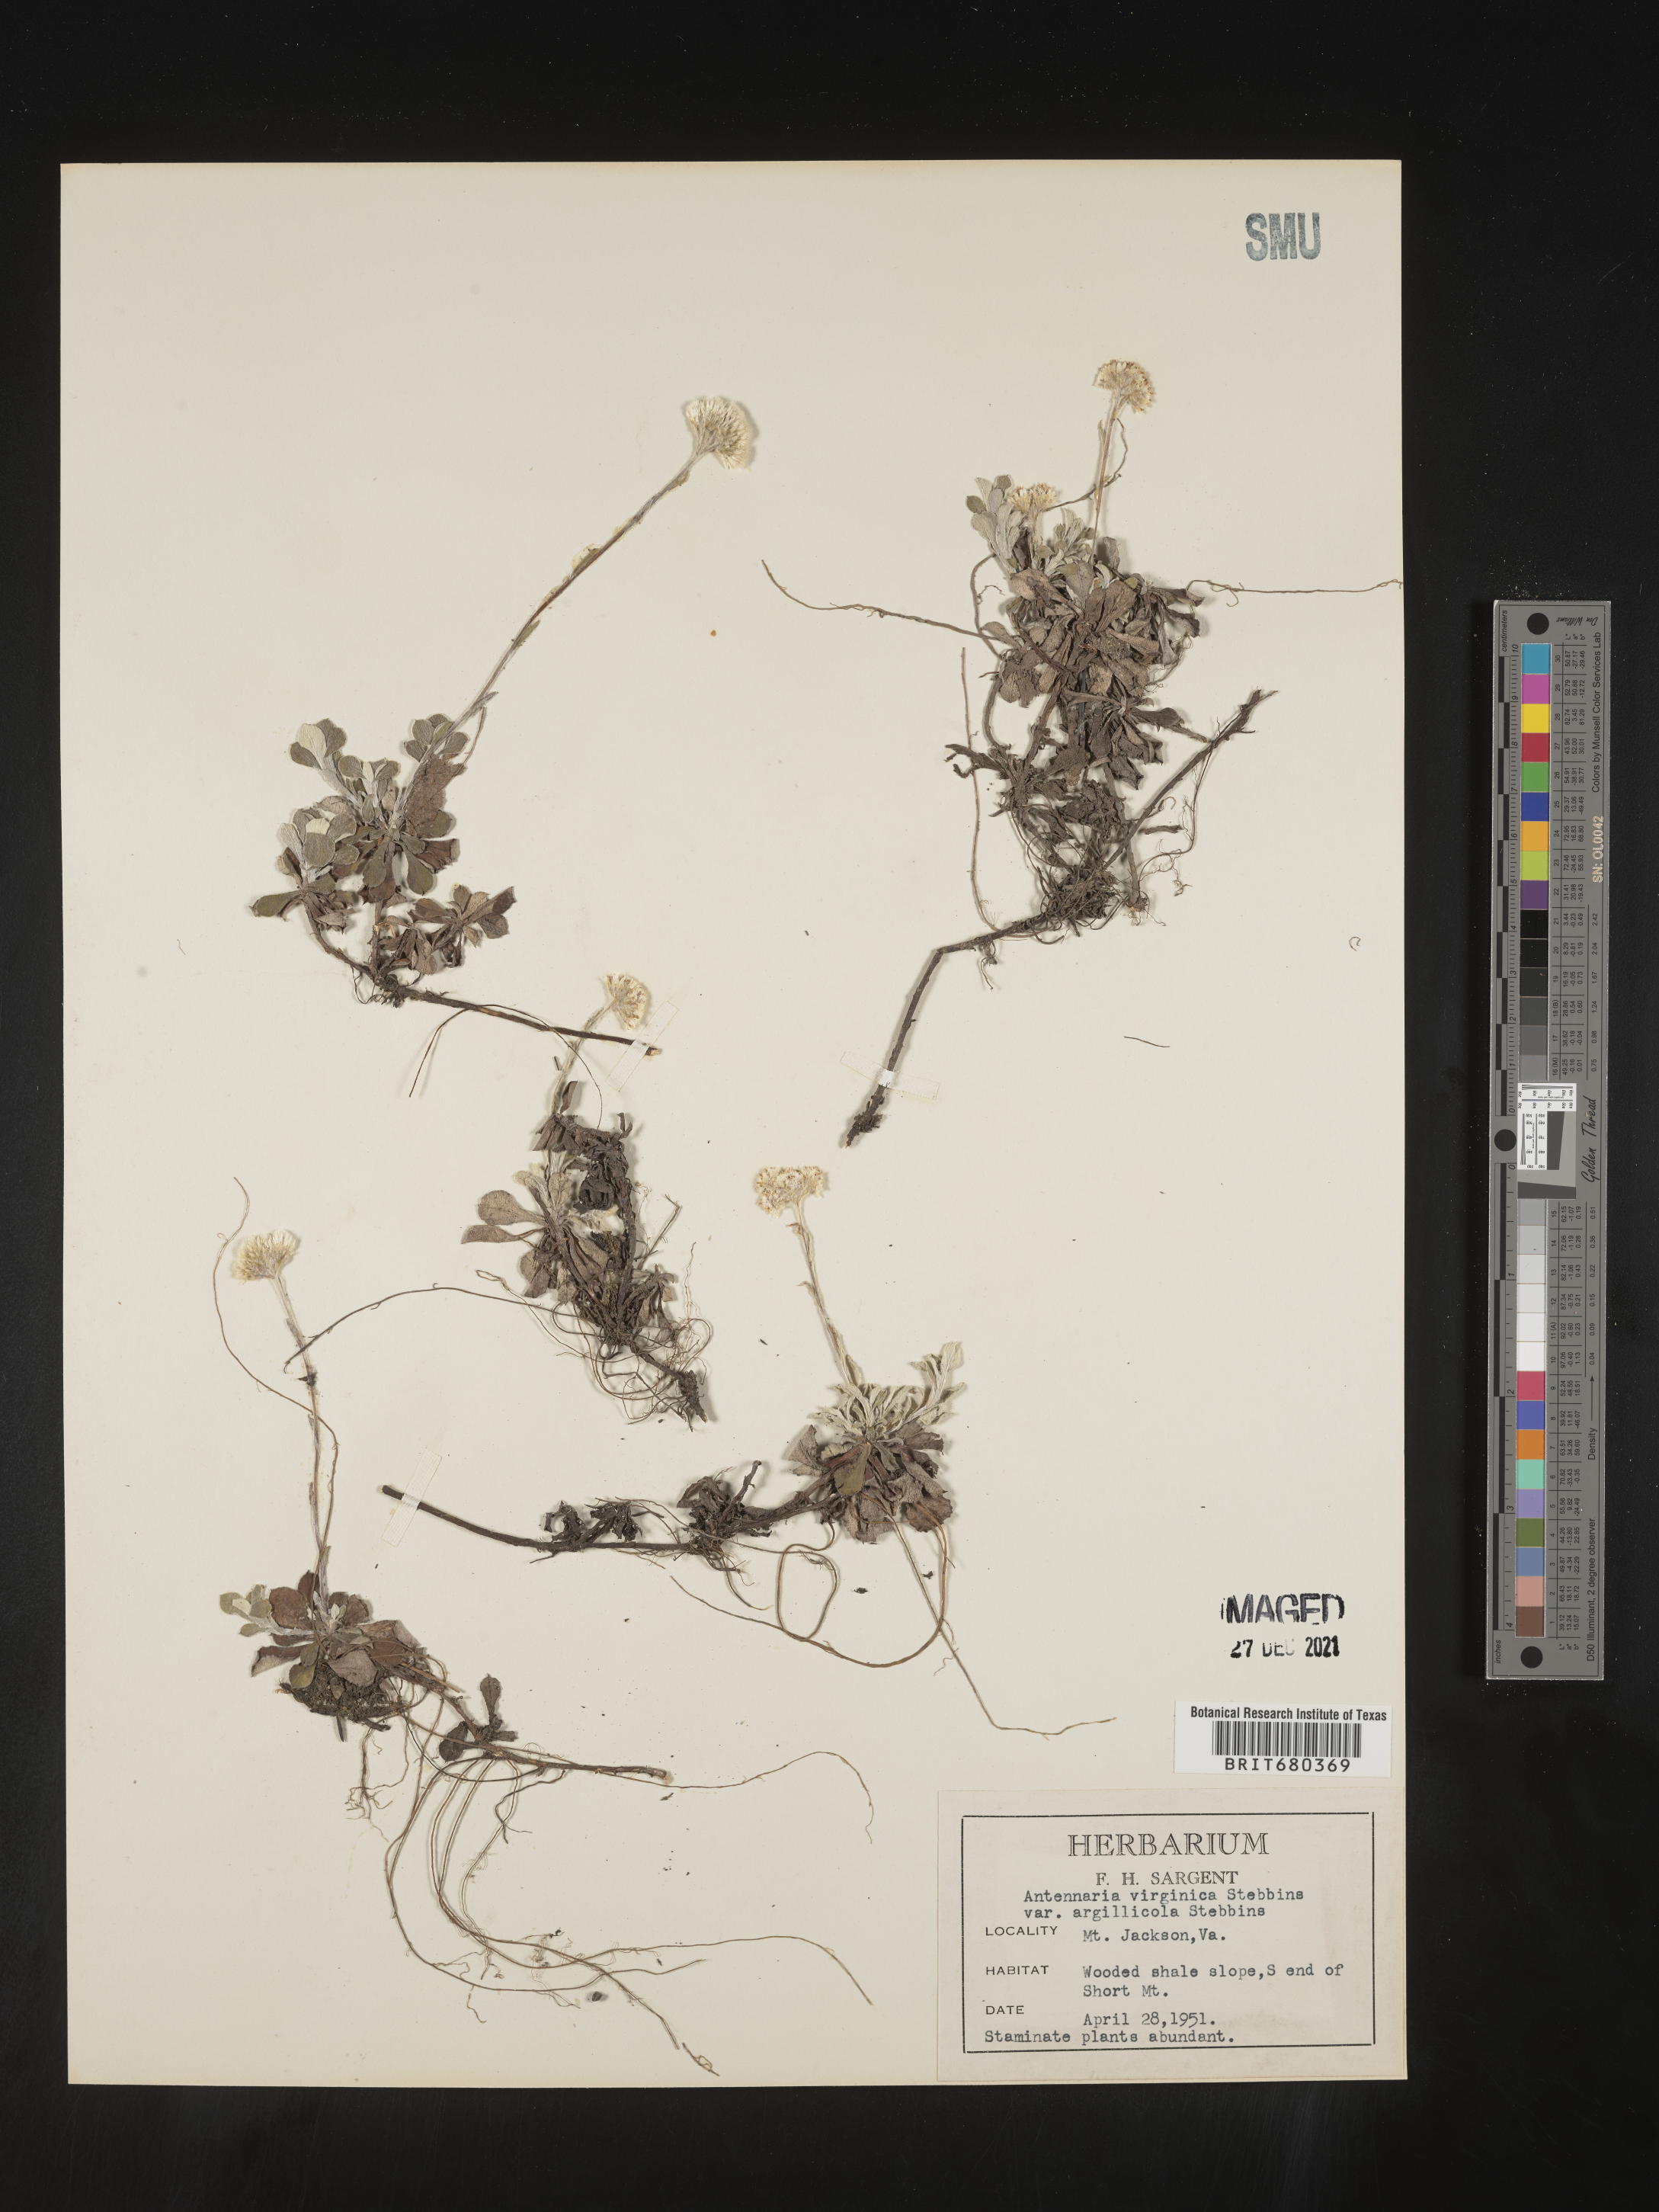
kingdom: Plantae
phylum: Tracheophyta
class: Magnoliopsida
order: Asterales
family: Asteraceae
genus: Antennaria
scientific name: Antennaria virginica
